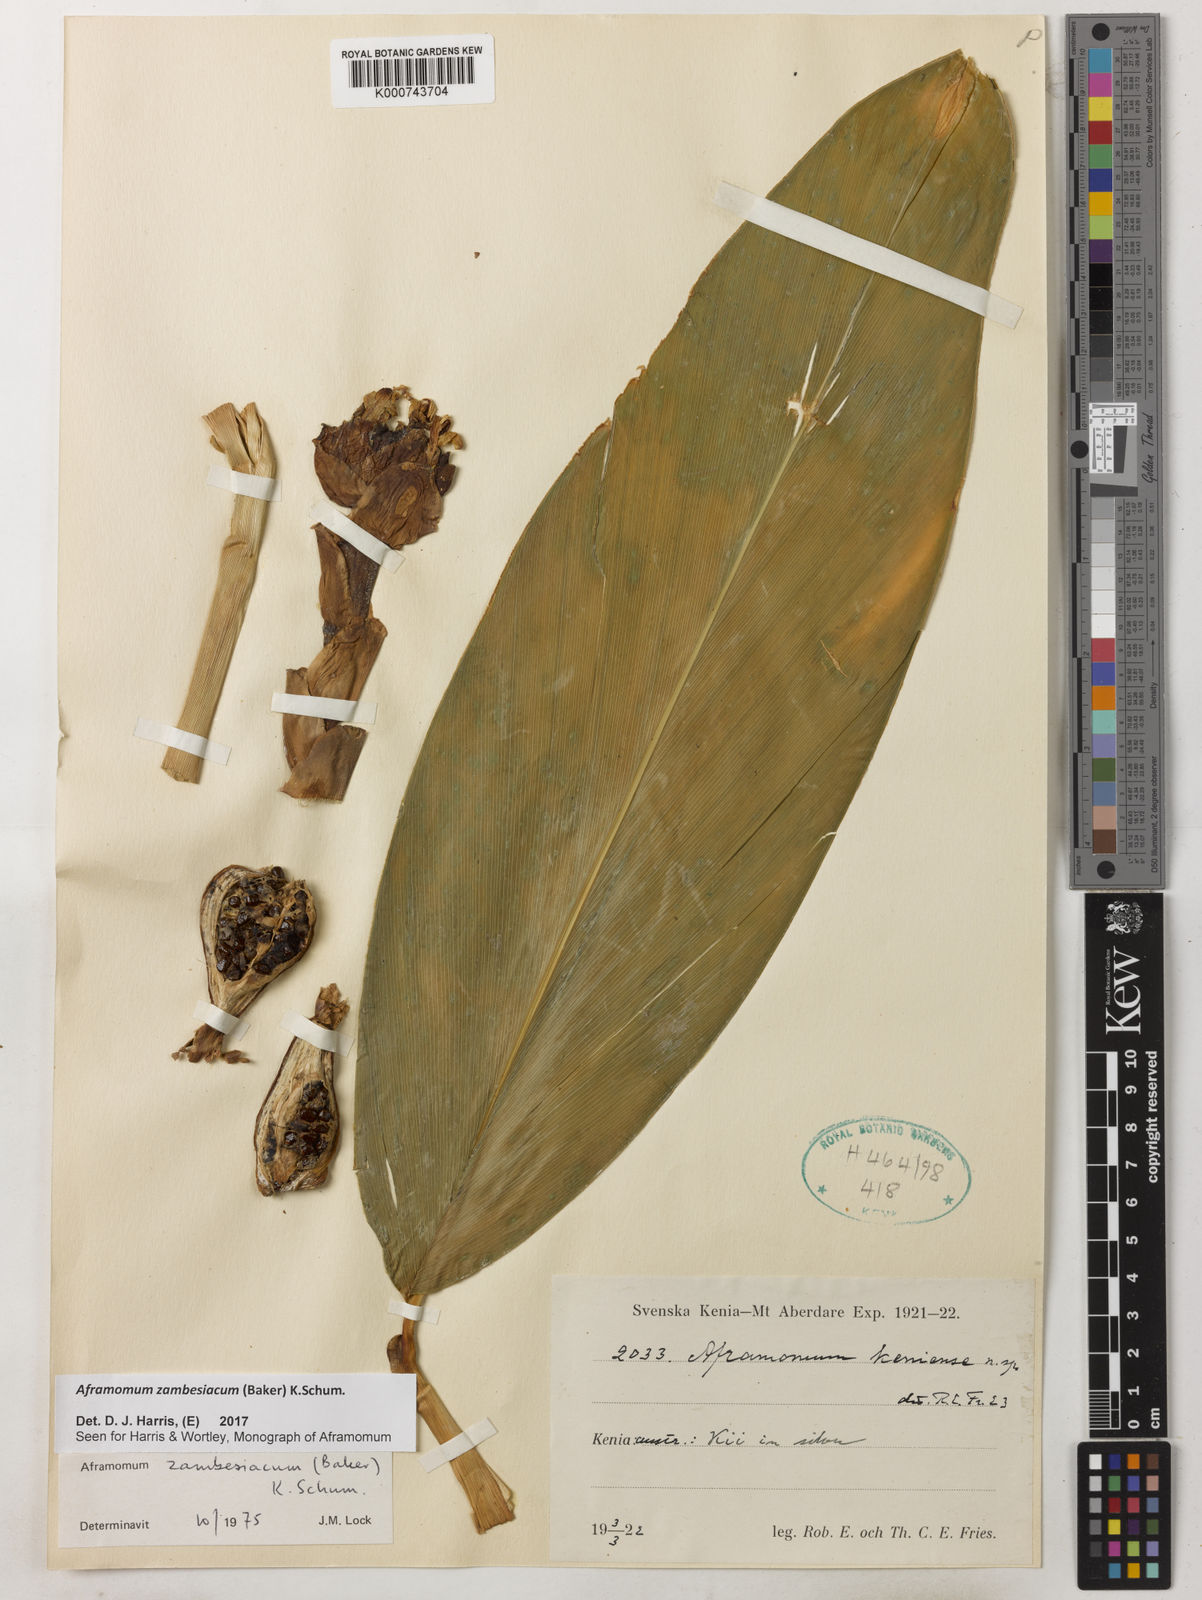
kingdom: Plantae
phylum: Tracheophyta
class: Liliopsida
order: Zingiberales
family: Zingiberaceae
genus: Aframomum
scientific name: Aframomum zambesiacum
